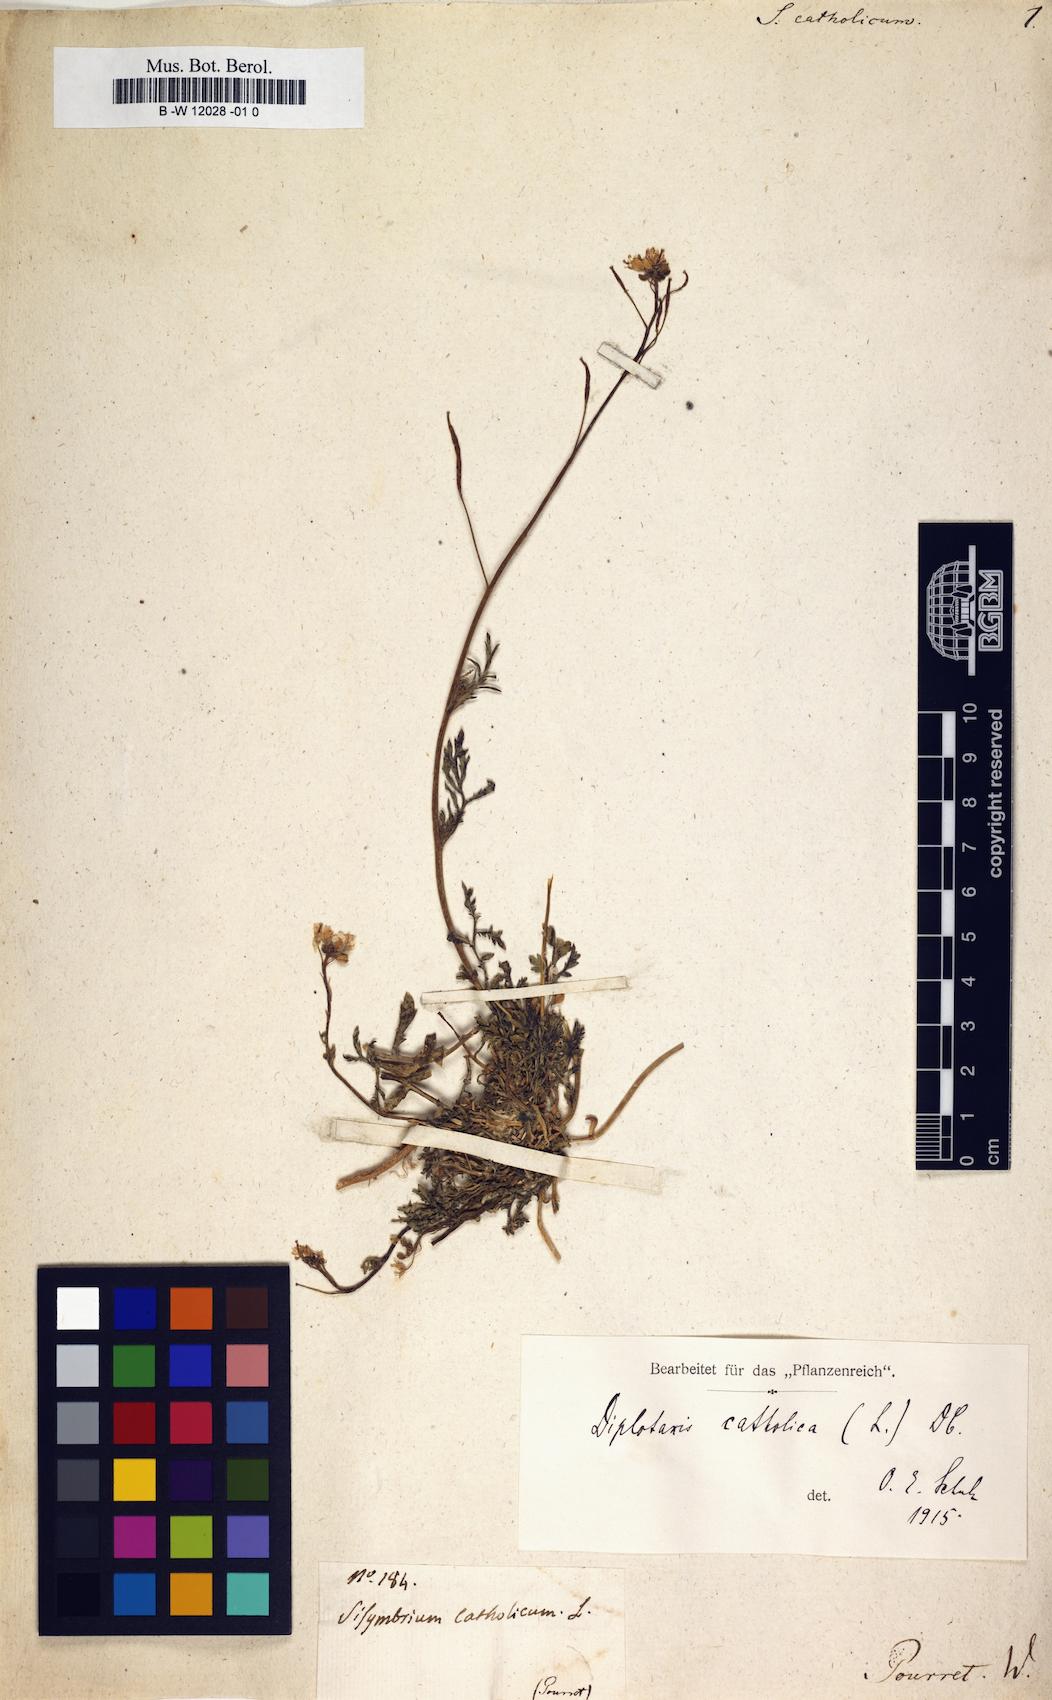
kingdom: Plantae
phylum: Tracheophyta
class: Magnoliopsida
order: Brassicales
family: Brassicaceae
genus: Diplotaxis
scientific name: Diplotaxis catholica
